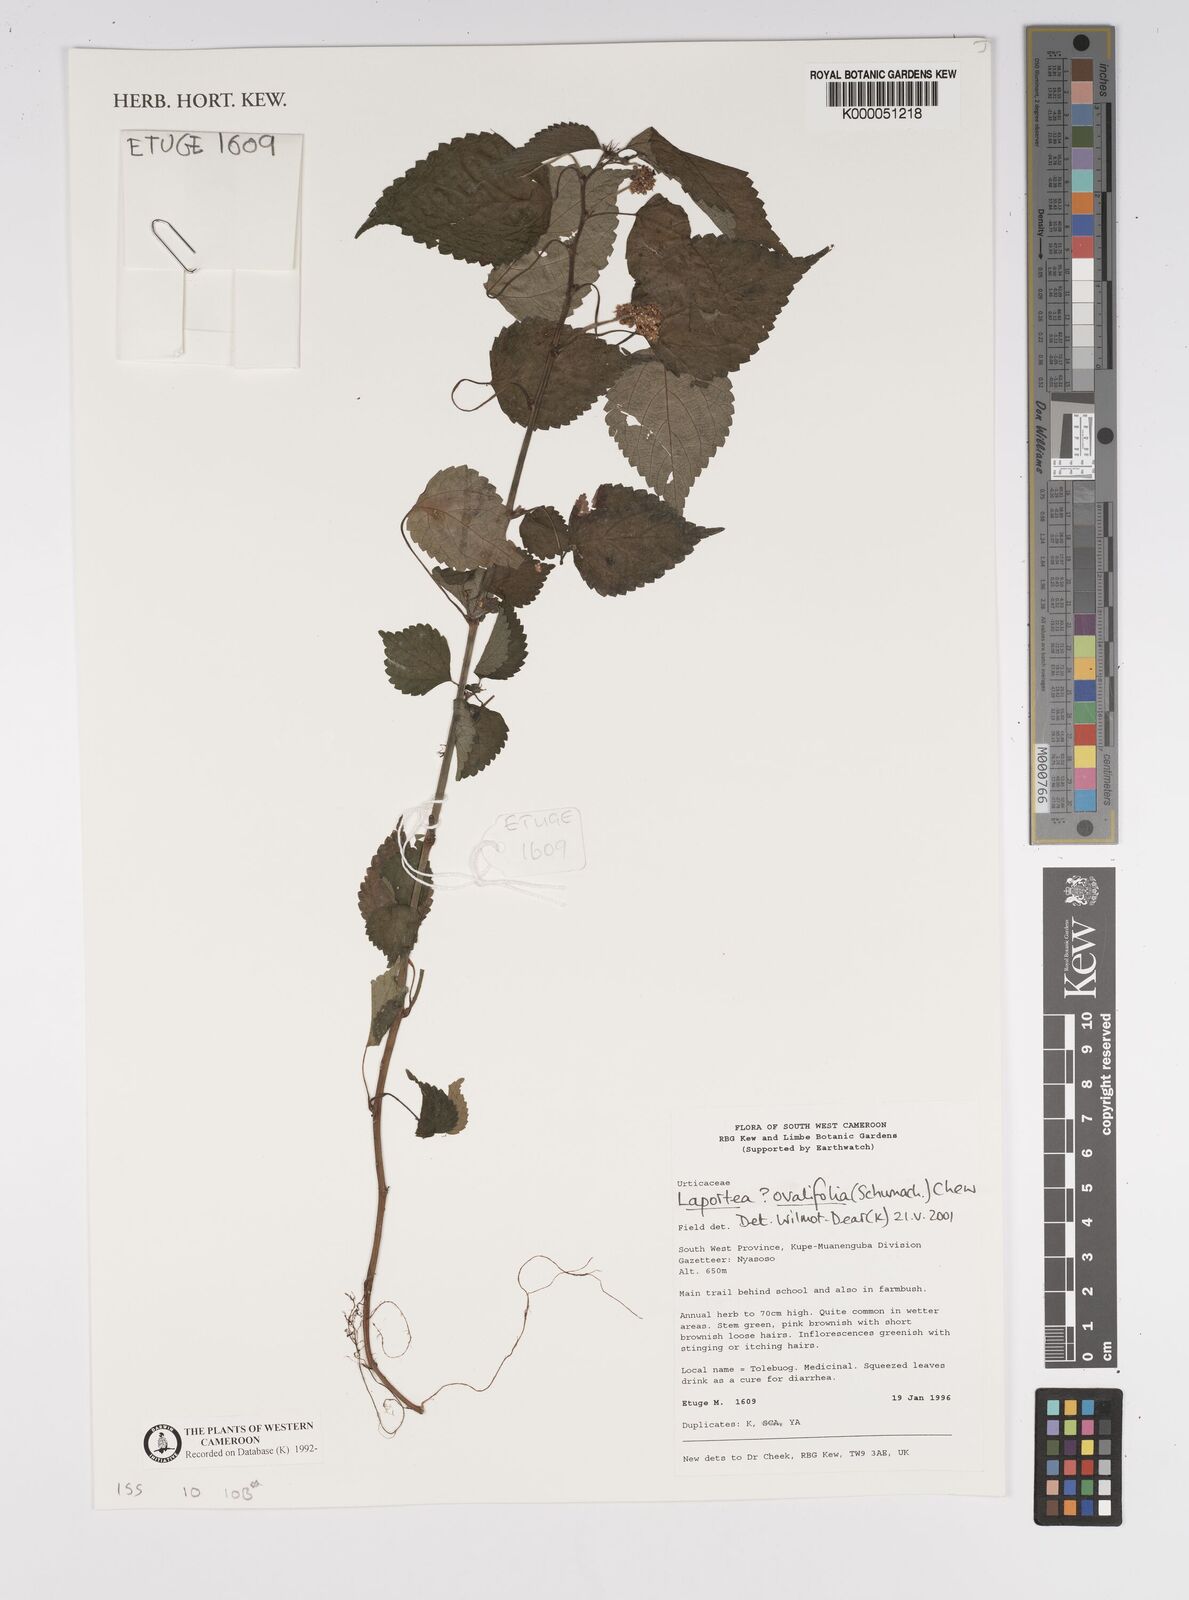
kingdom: Plantae
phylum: Tracheophyta
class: Magnoliopsida
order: Rosales
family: Urticaceae
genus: Laportea
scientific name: Laportea ovalifolia
